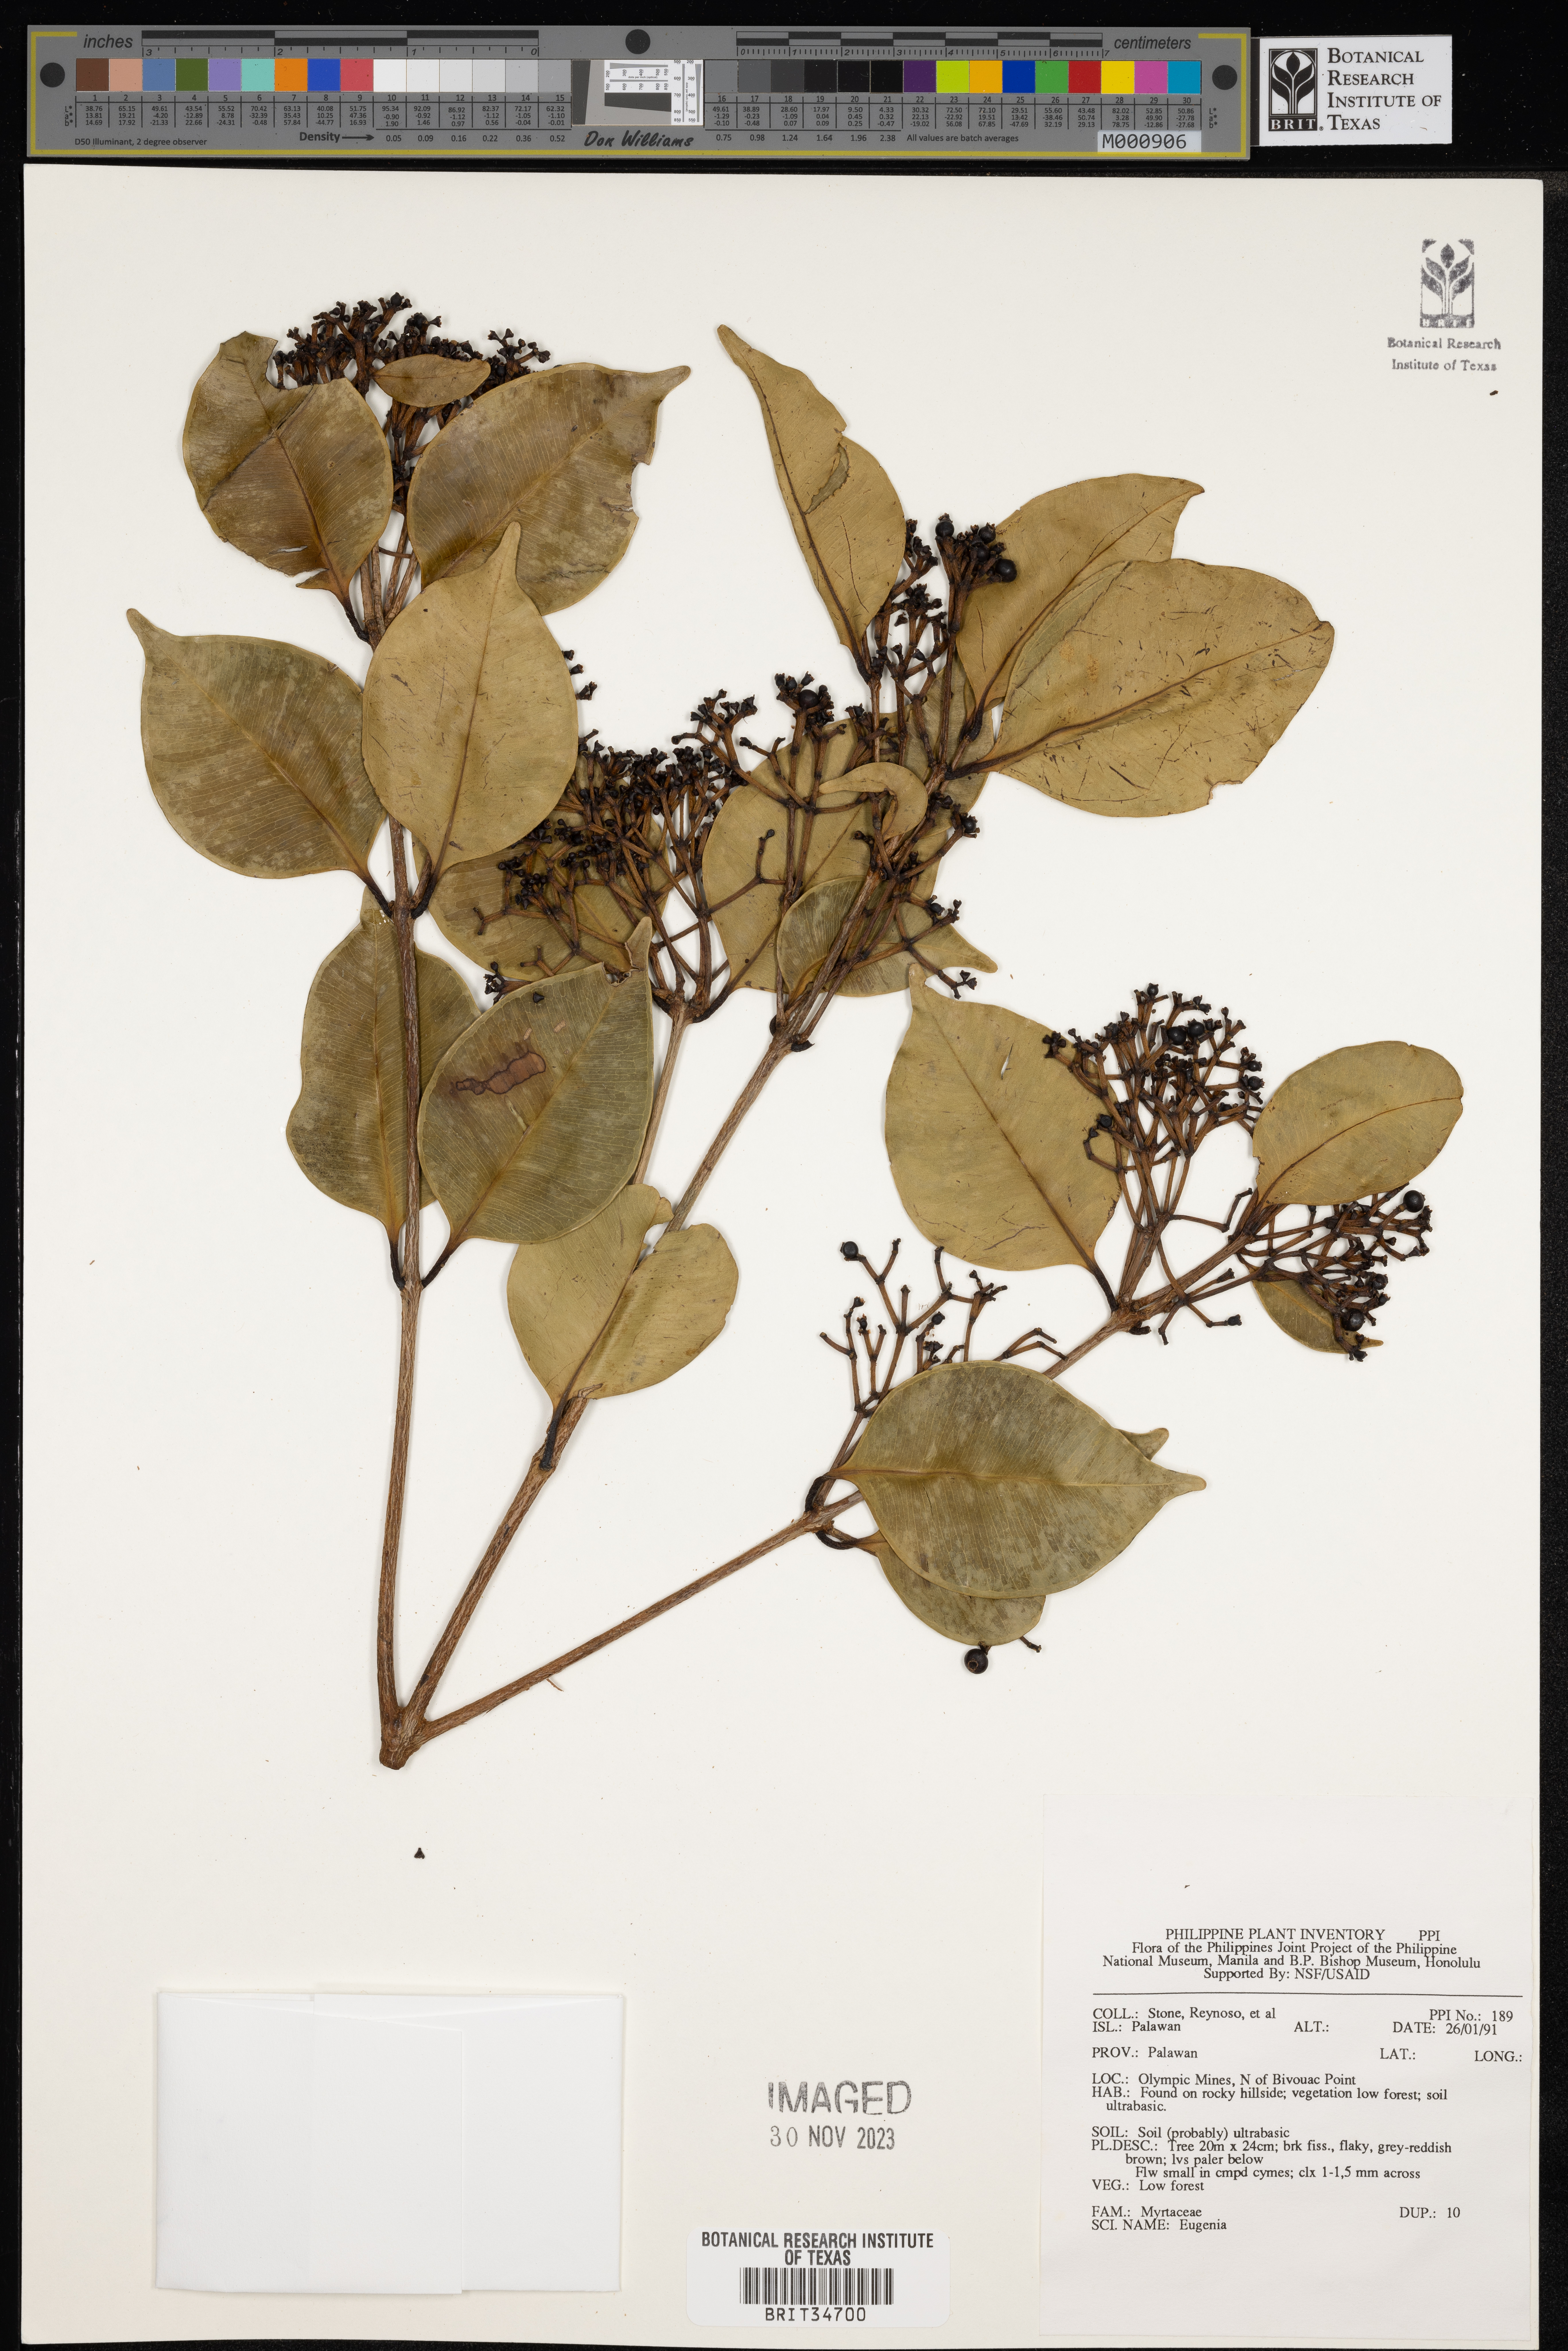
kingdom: Plantae
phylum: Tracheophyta
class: Magnoliopsida
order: Myrtales
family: Myrtaceae
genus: Eugenia
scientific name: Eugenia
